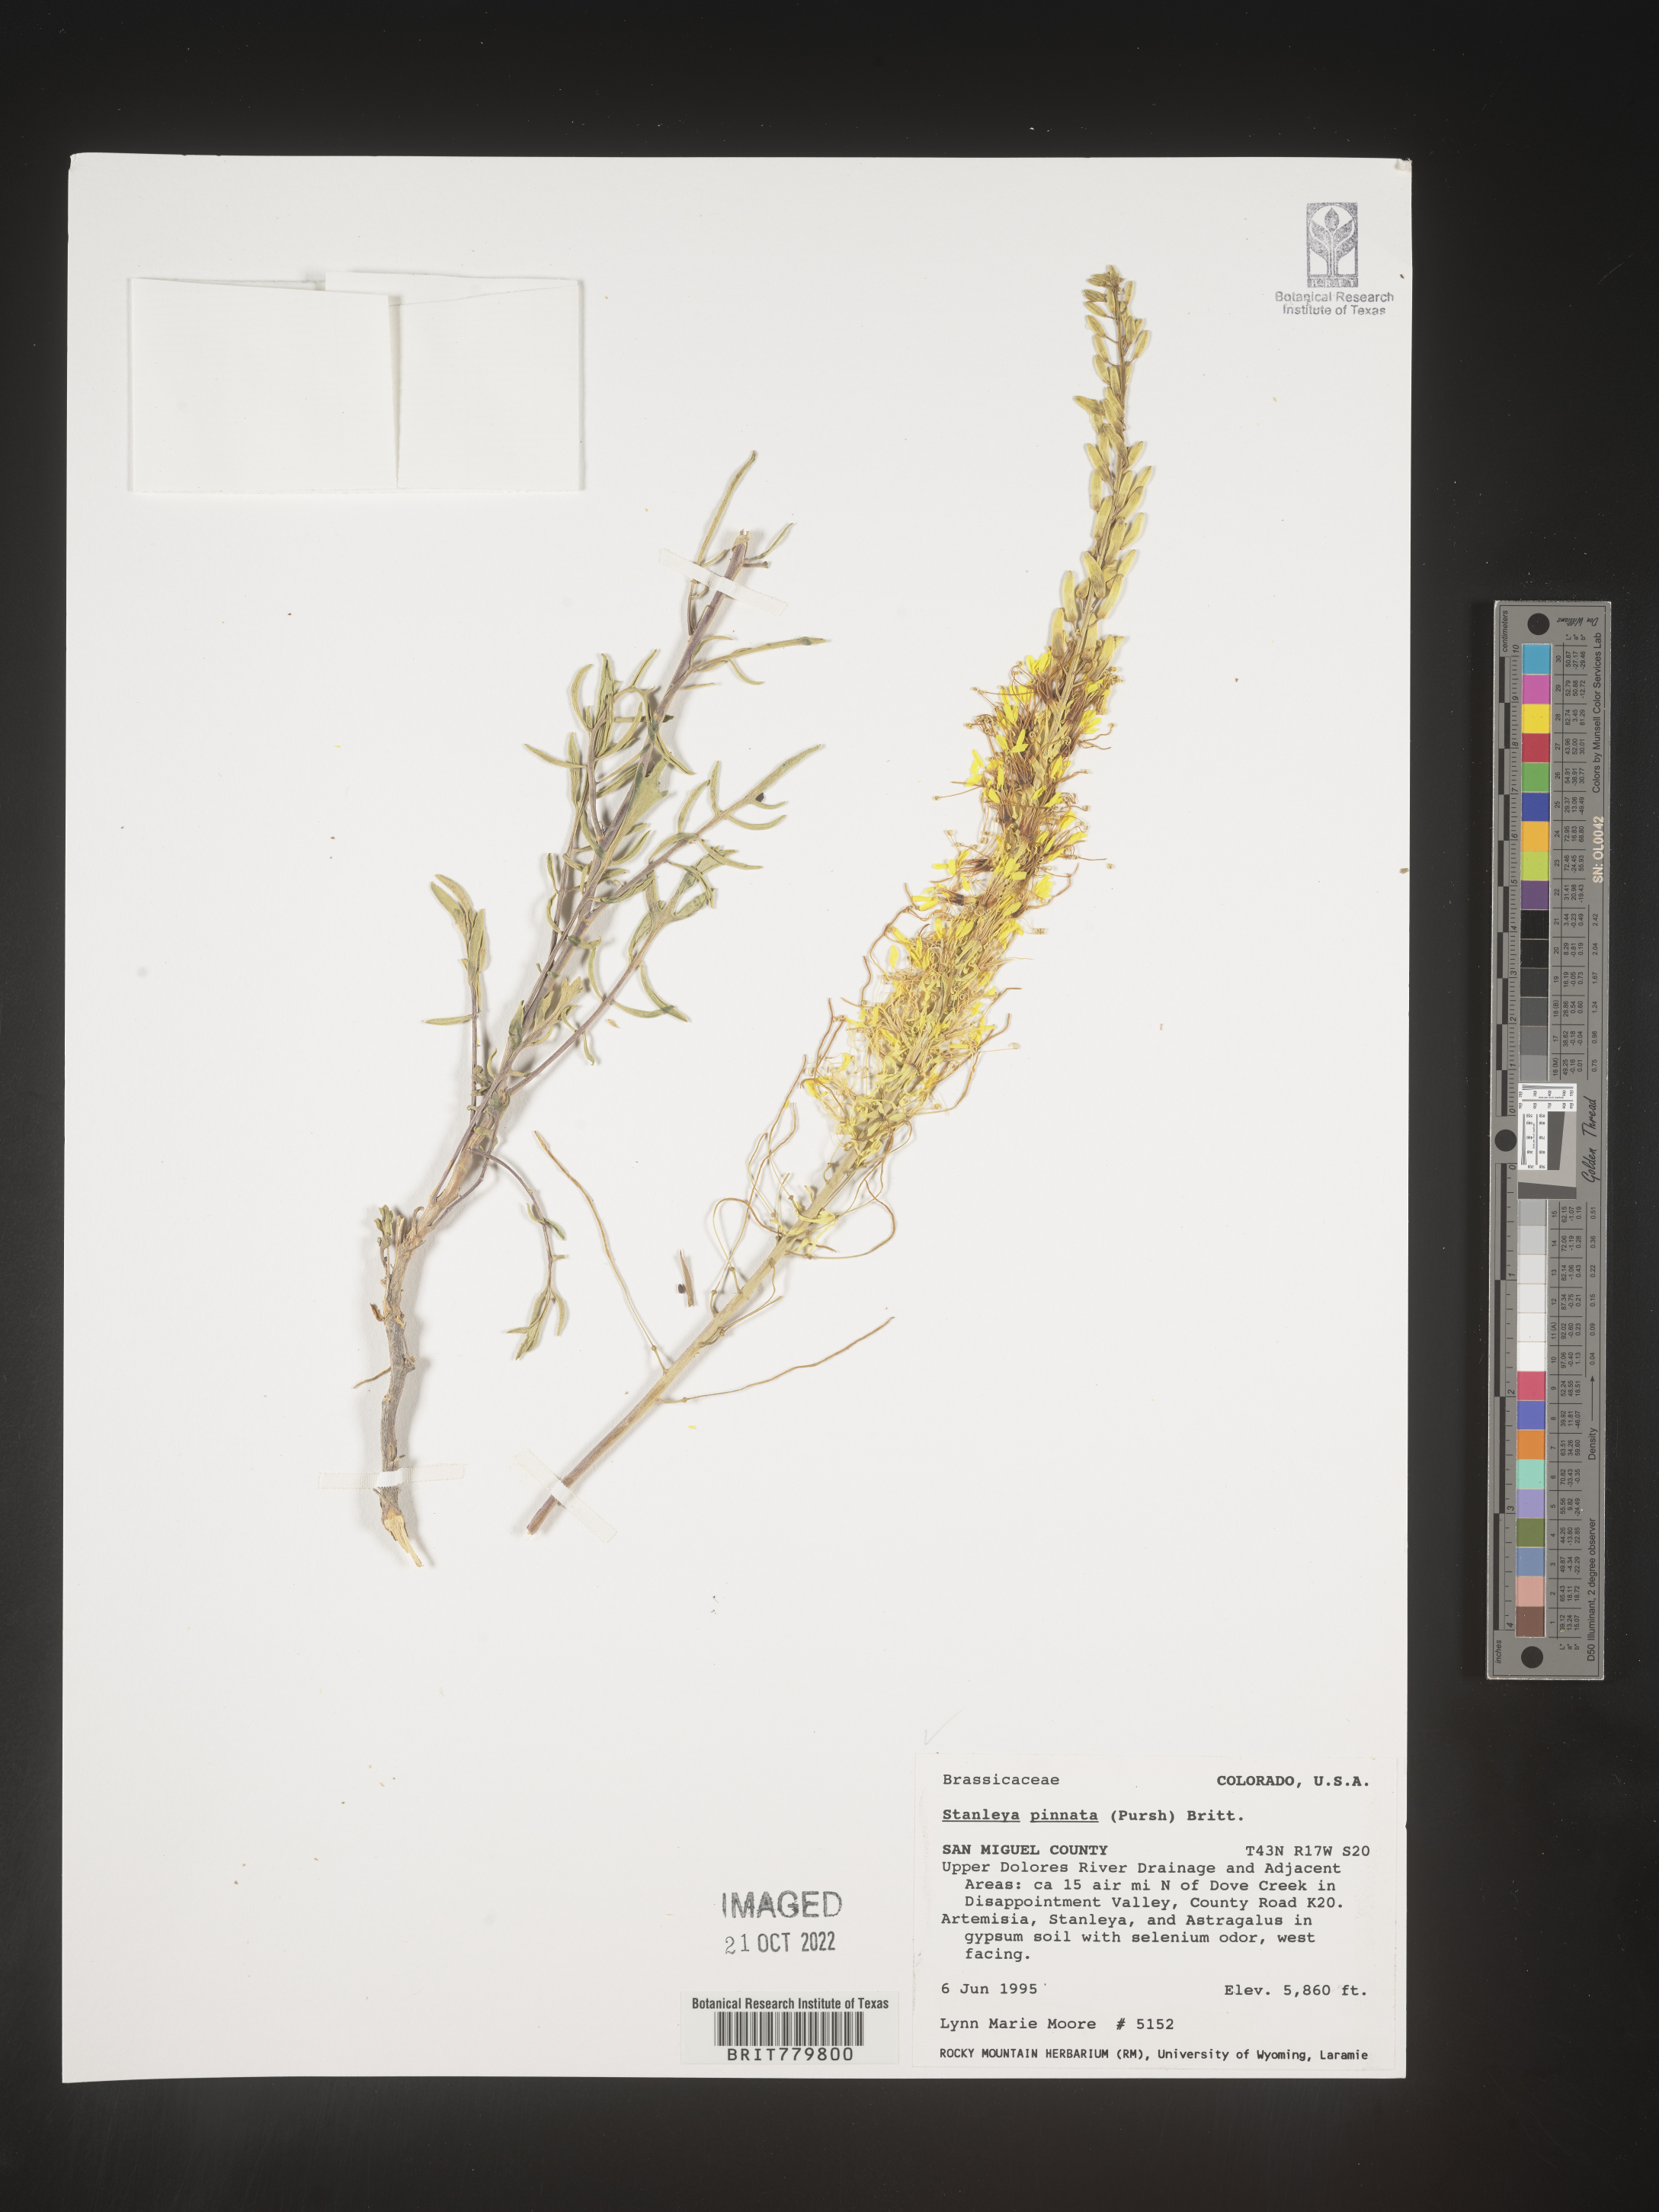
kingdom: Plantae
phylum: Tracheophyta
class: Magnoliopsida
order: Brassicales
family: Brassicaceae
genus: Stanleya
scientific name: Stanleya pinnata
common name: Prince's-plume
